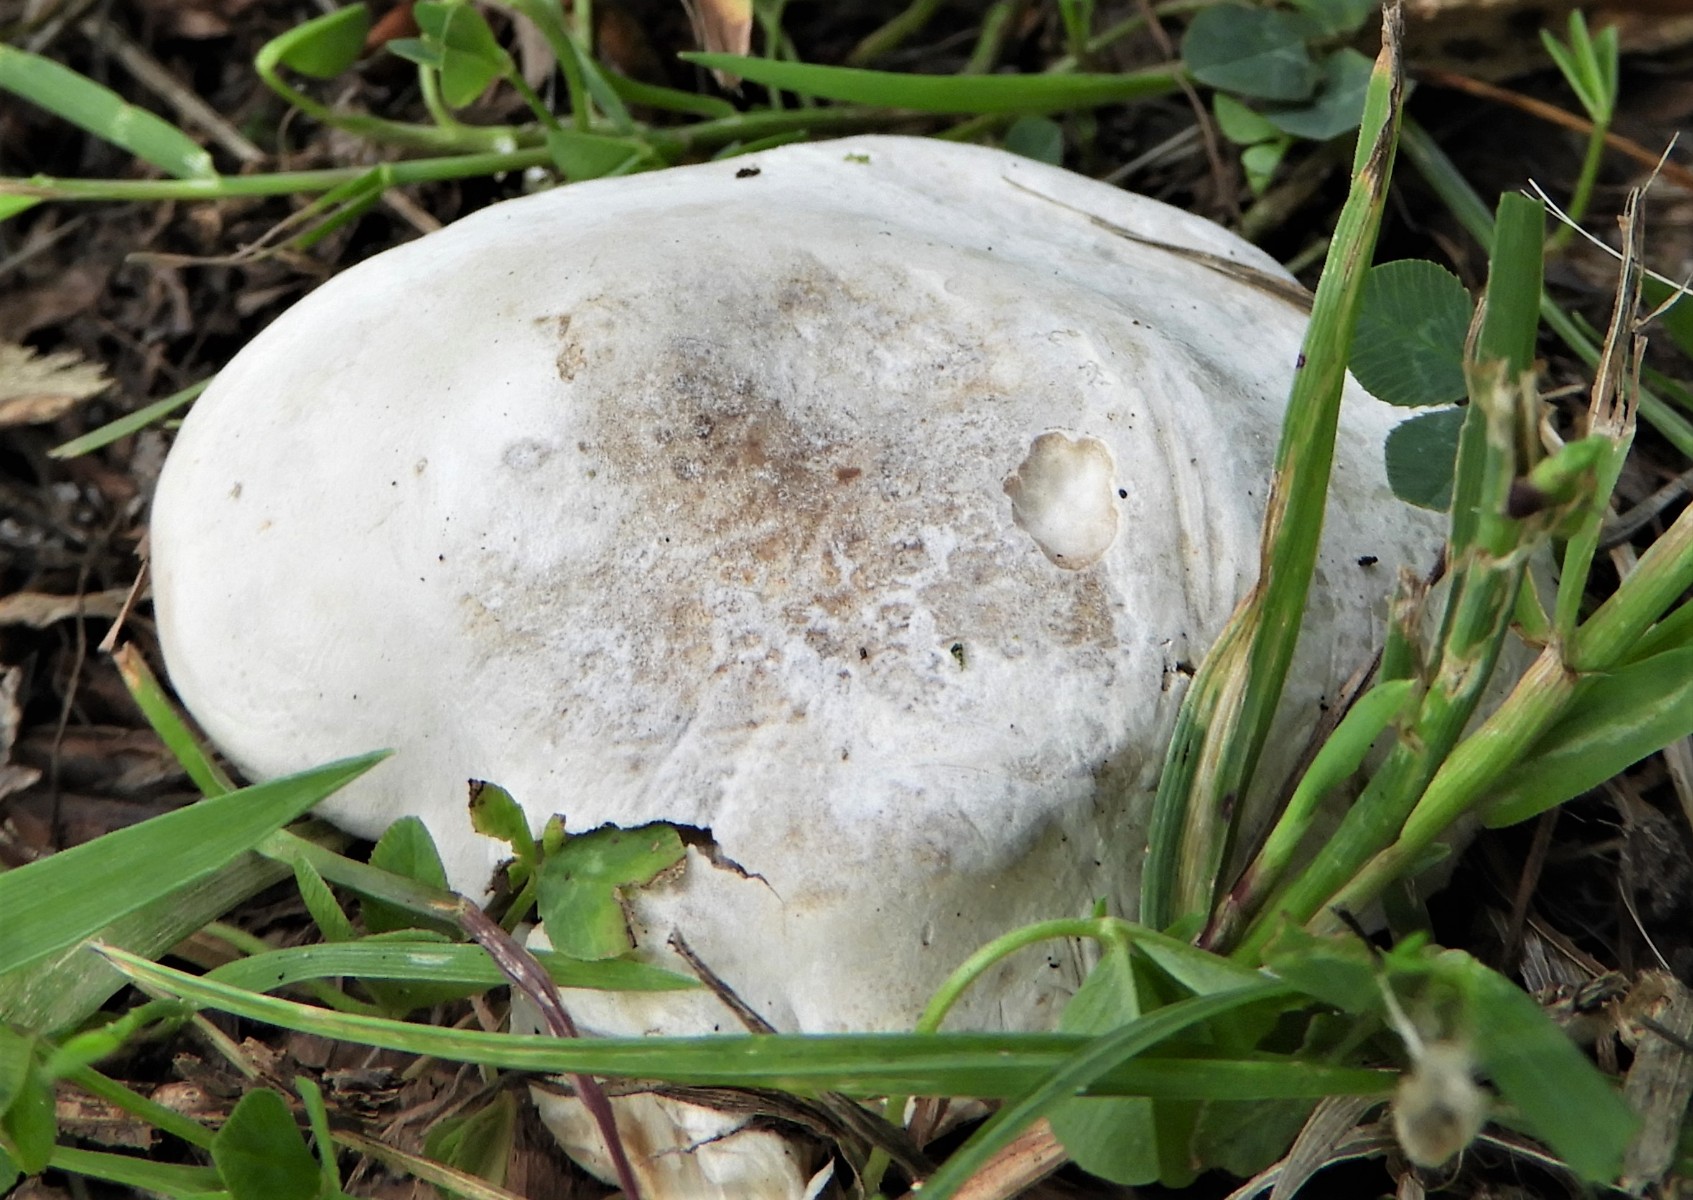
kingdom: Fungi
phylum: Basidiomycota
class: Agaricomycetes
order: Agaricales
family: Entolomataceae
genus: Clitopilus
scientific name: Clitopilus prunulus
